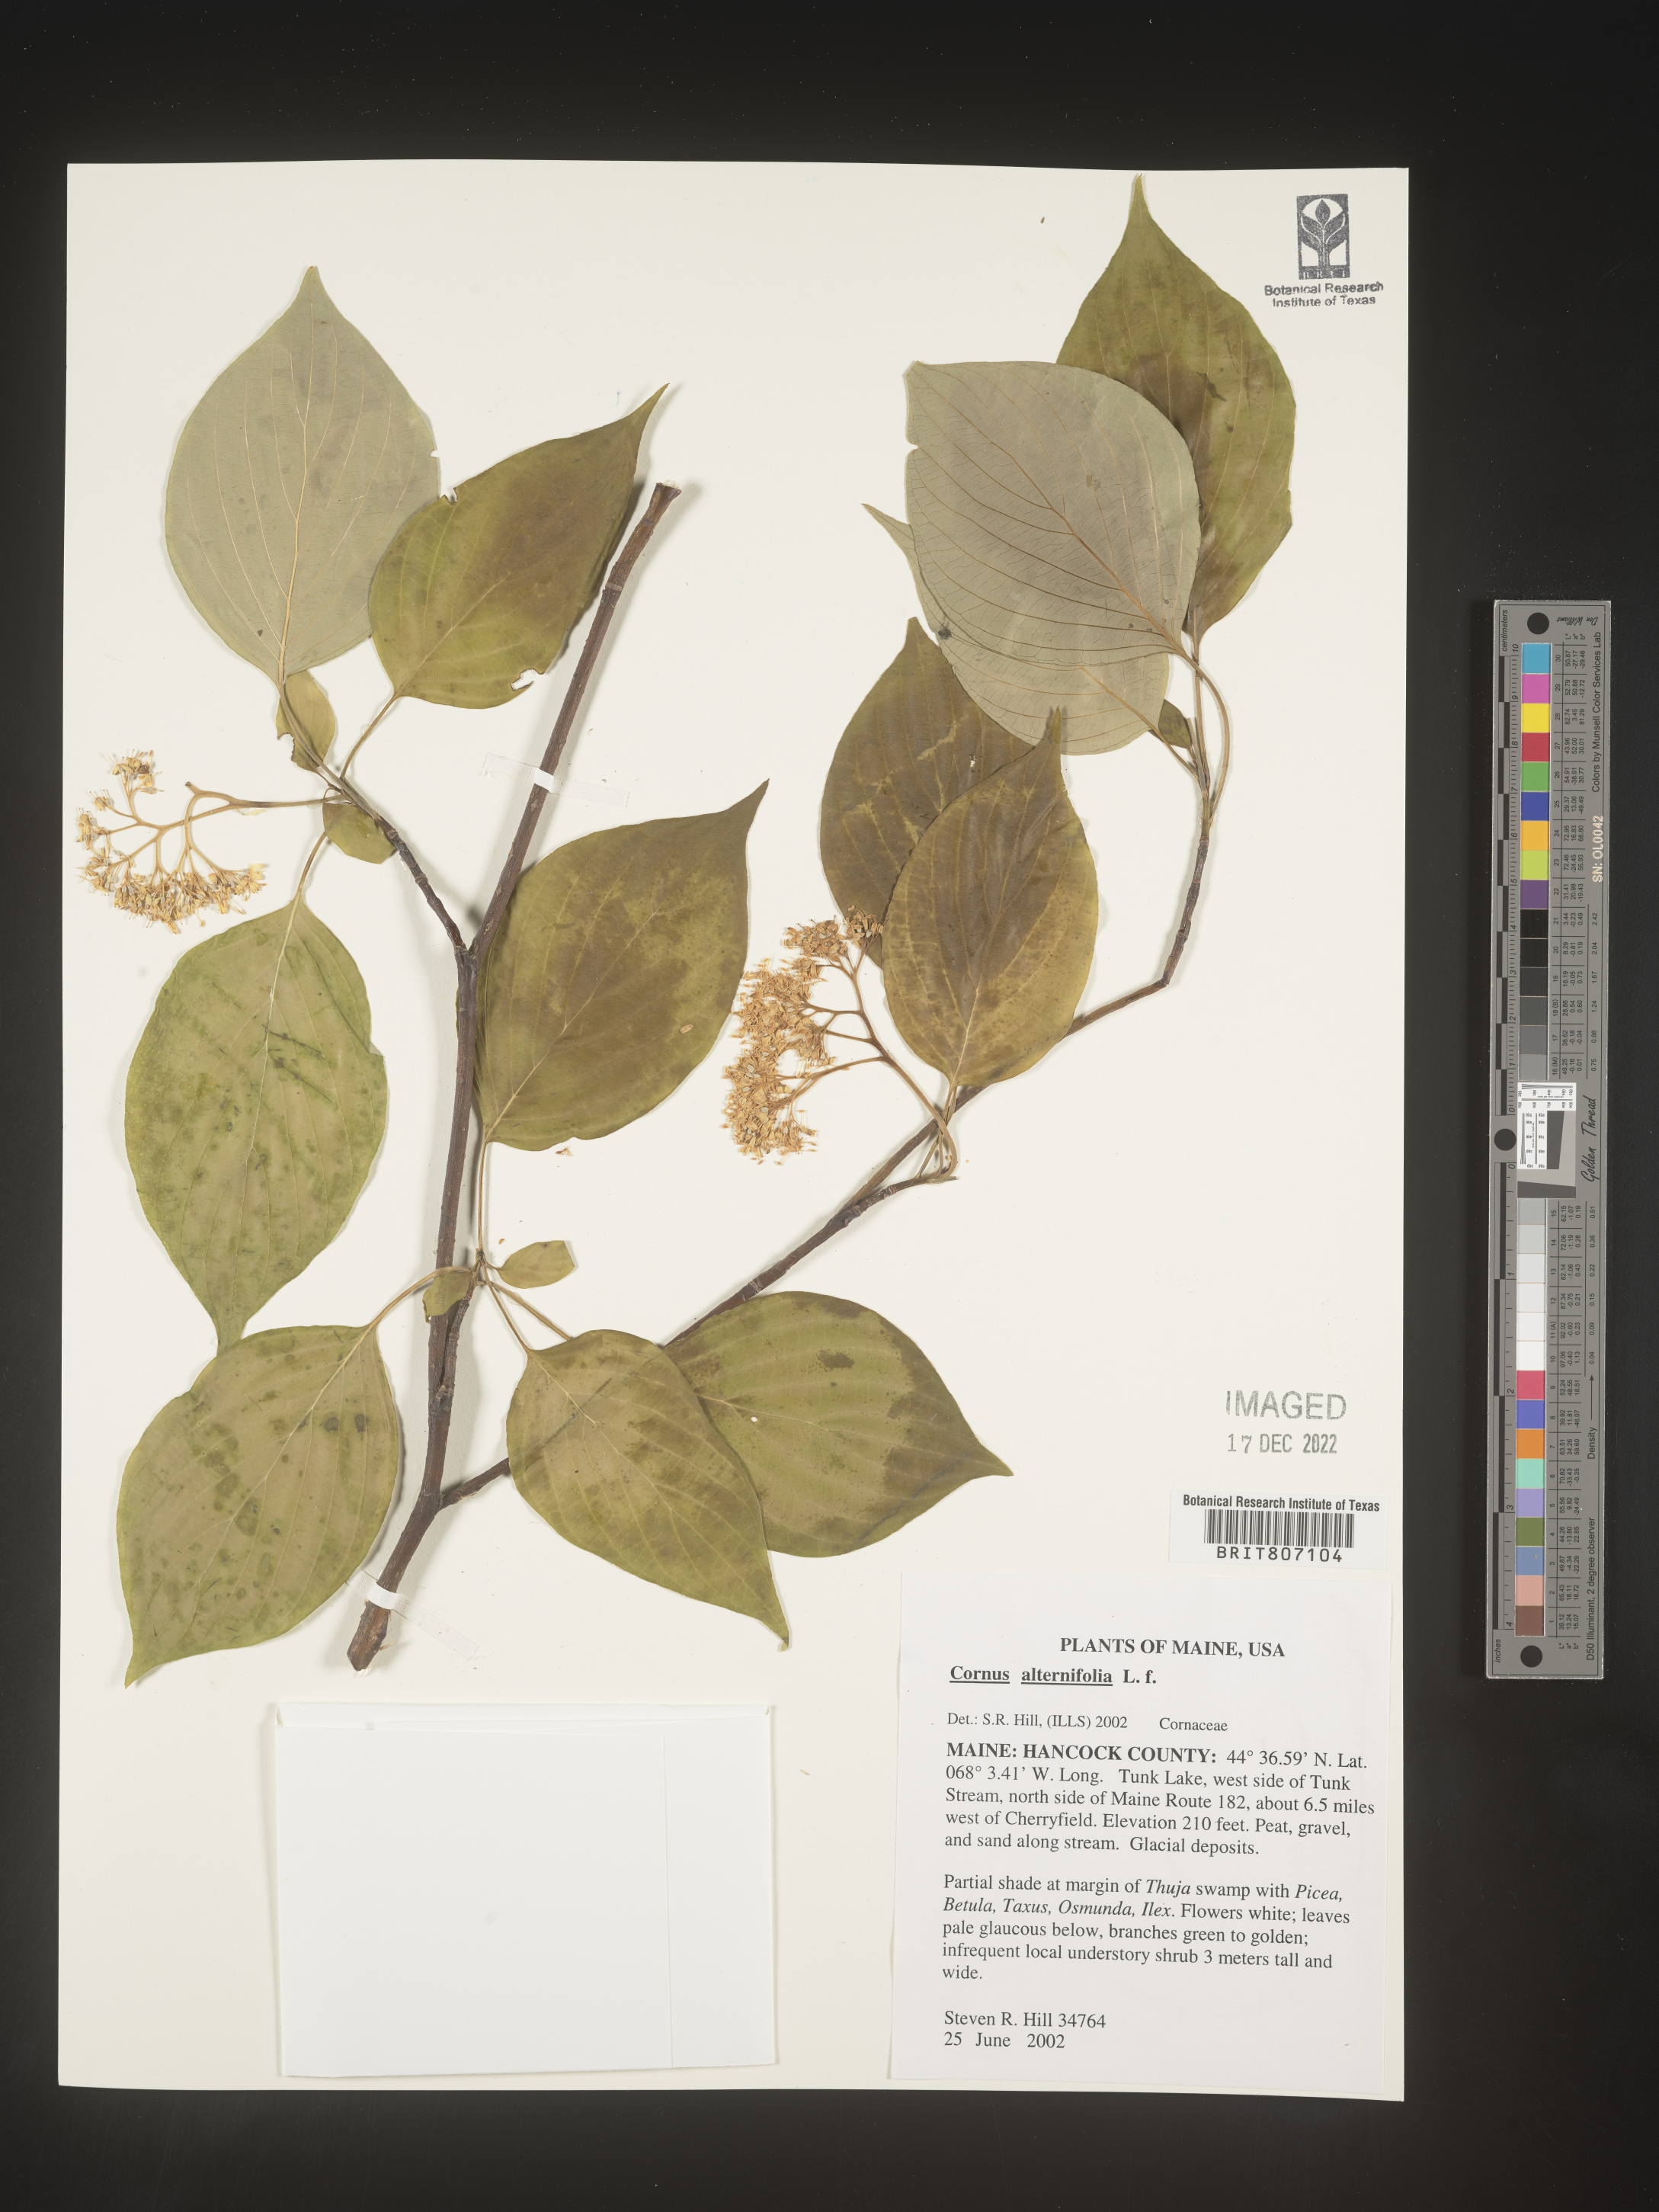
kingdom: Plantae
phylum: Tracheophyta
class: Magnoliopsida
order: Cornales
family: Cornaceae
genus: Cornus
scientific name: Cornus alternifolia
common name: Pagoda dogwood
